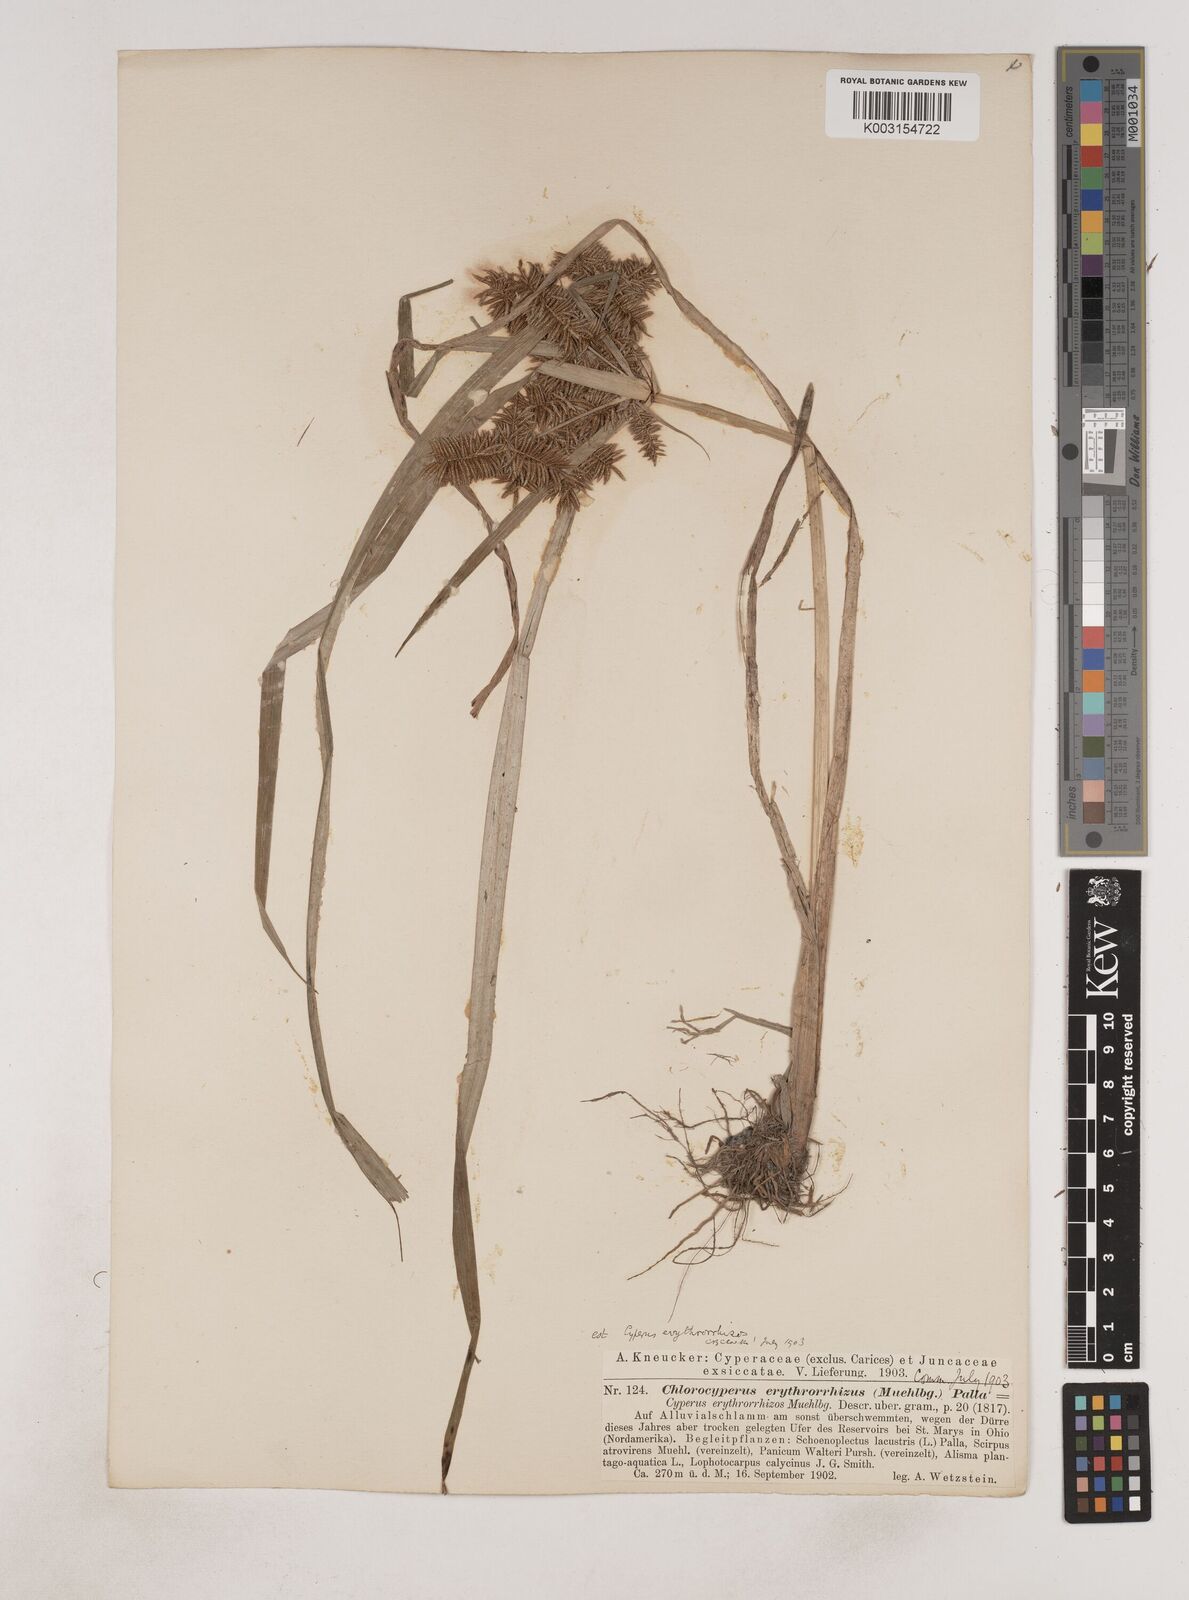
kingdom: Plantae
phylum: Tracheophyta
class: Liliopsida
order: Poales
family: Cyperaceae
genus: Cyperus
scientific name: Cyperus erythrorhizos
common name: Red-root flat sedge
